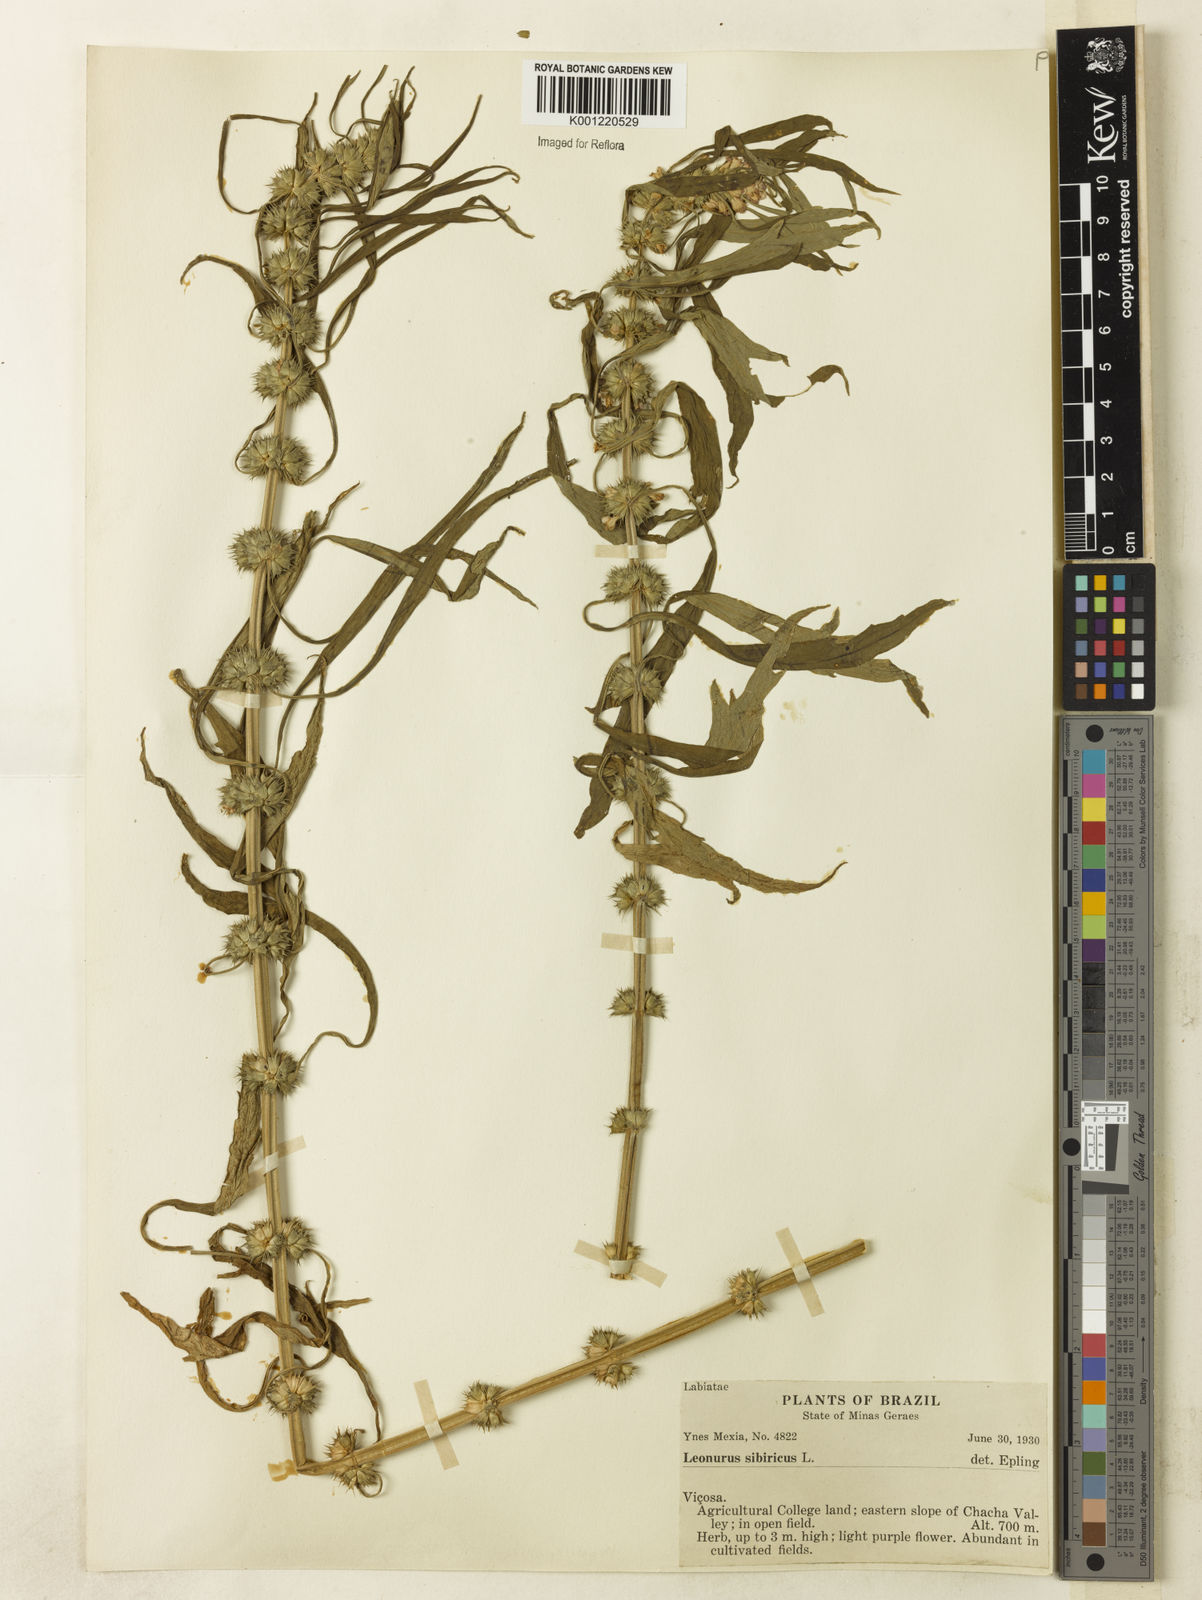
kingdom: Plantae
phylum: Tracheophyta
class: Magnoliopsida
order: Lamiales
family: Lamiaceae
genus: Leonurus
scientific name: Leonurus japonicus
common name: Honeyweed
